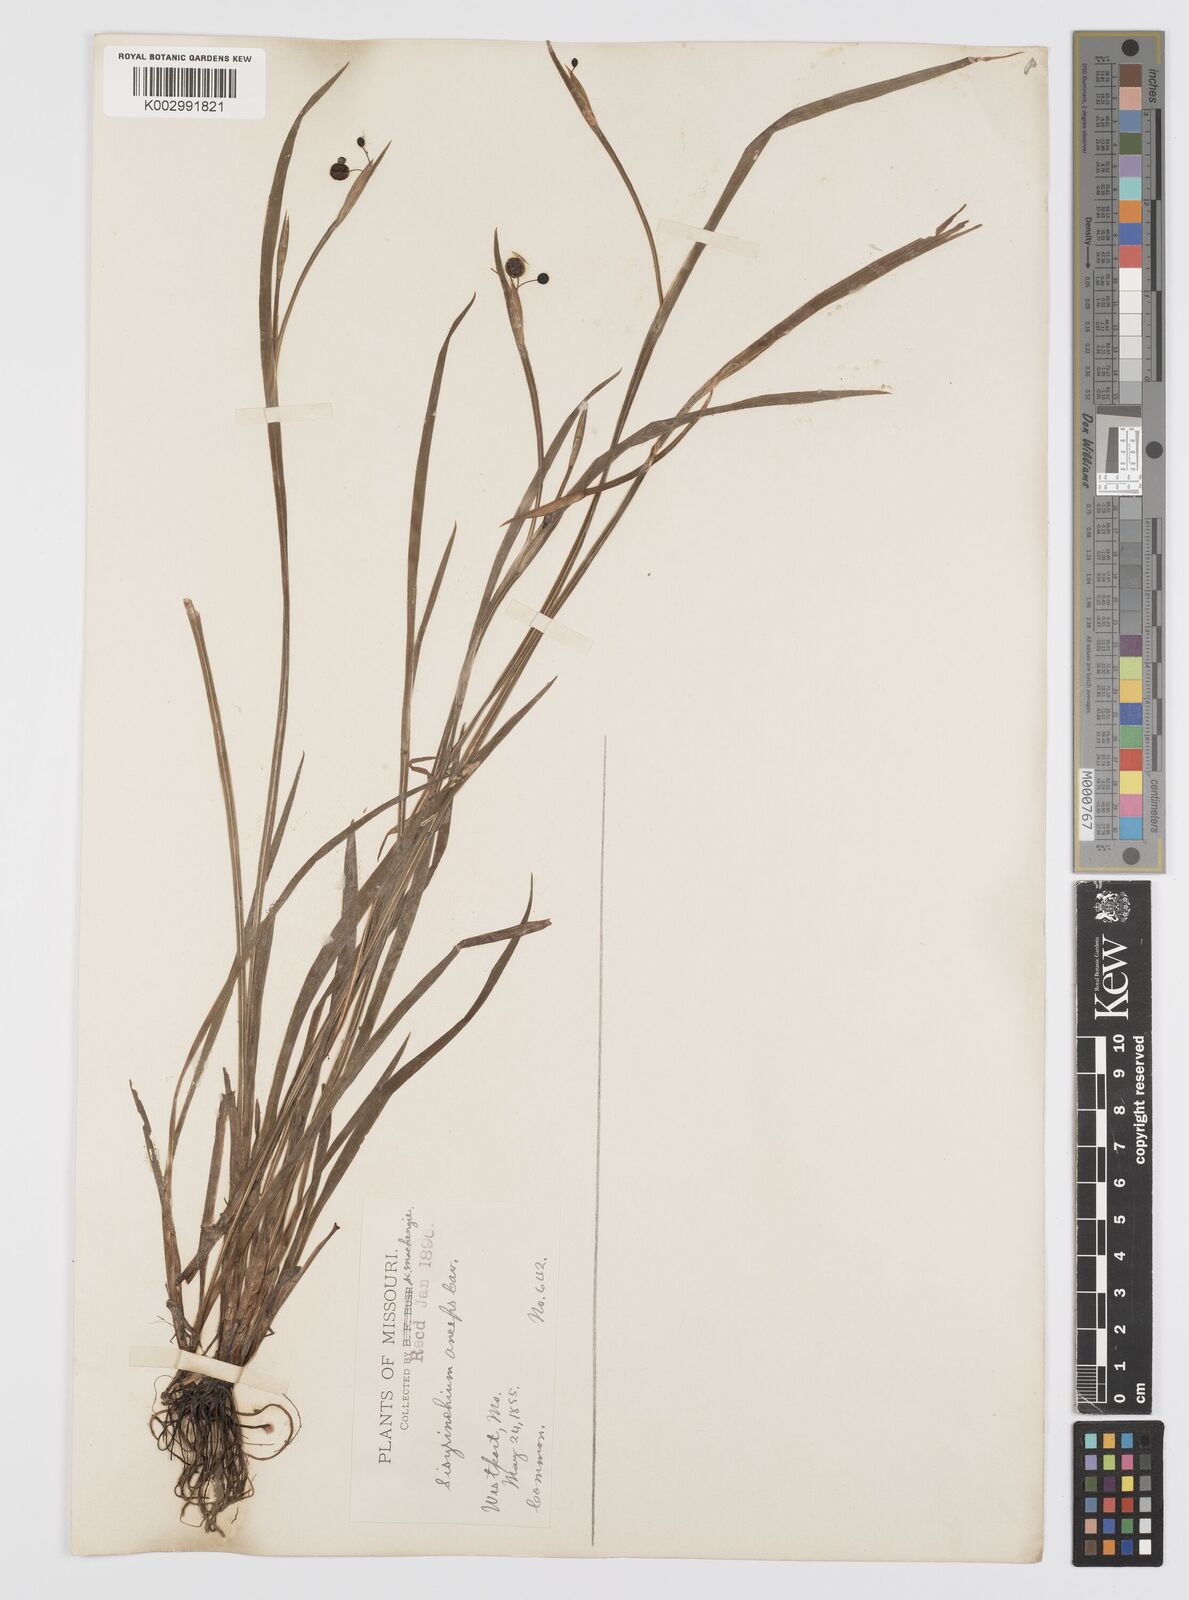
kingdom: Plantae
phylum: Tracheophyta
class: Liliopsida
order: Asparagales
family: Iridaceae
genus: Sisyrinchium
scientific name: Sisyrinchium bermudiana
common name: Blue-eyed-grass
